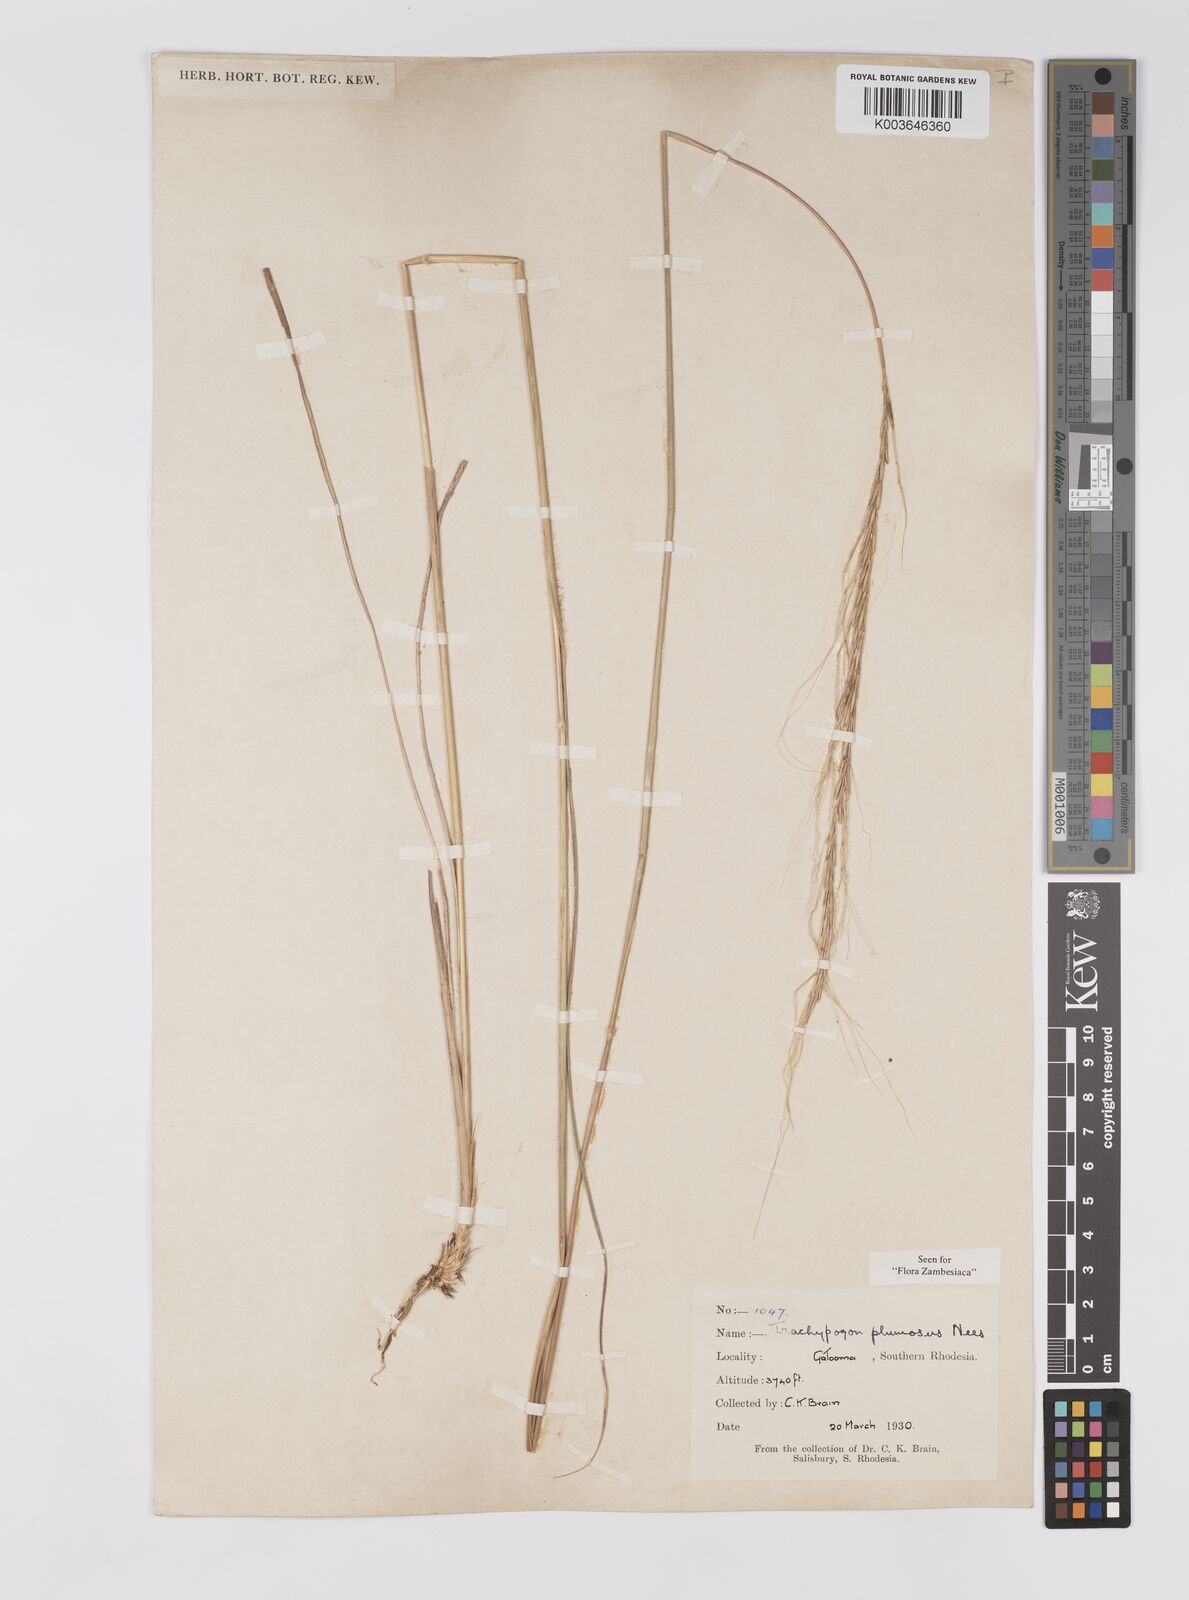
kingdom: Plantae
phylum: Tracheophyta
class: Liliopsida
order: Poales
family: Poaceae
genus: Trachypogon
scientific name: Trachypogon spicatus
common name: Crinkle-awn
